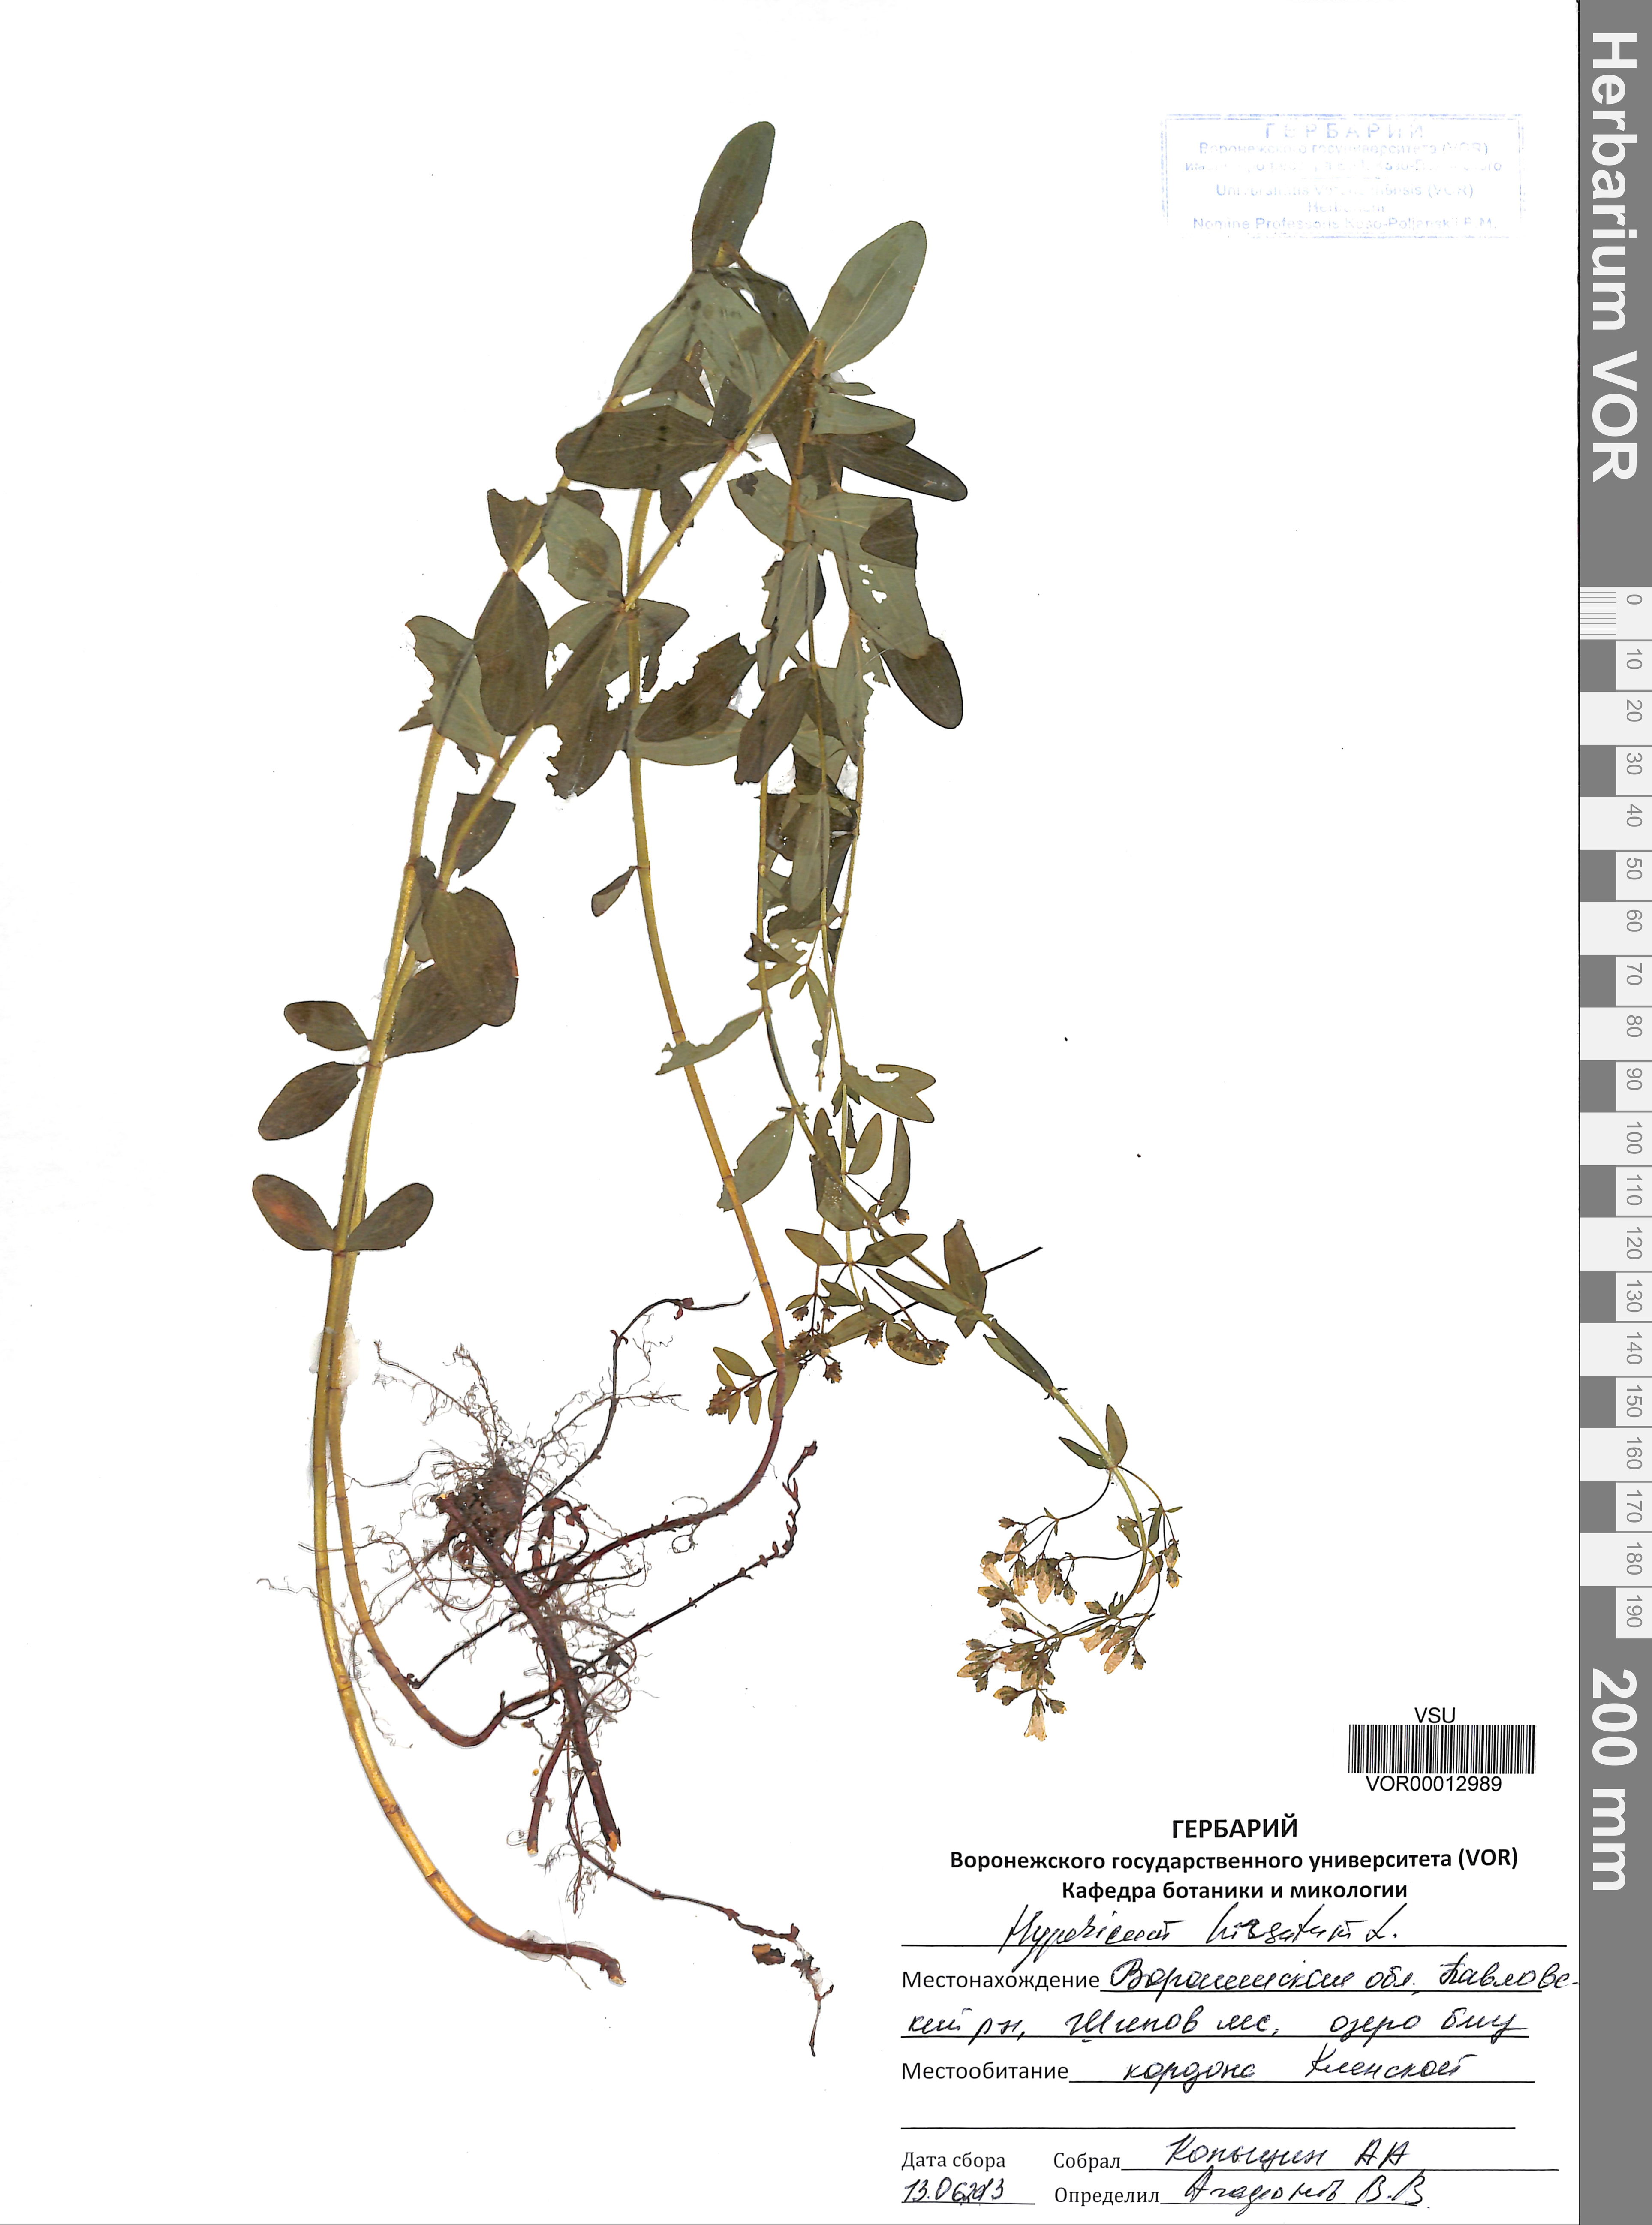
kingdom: Plantae
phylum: Tracheophyta
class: Magnoliopsida
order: Malpighiales
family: Hypericaceae
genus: Hypericum
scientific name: Hypericum hirsutum
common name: Hairy st. john's-wort
